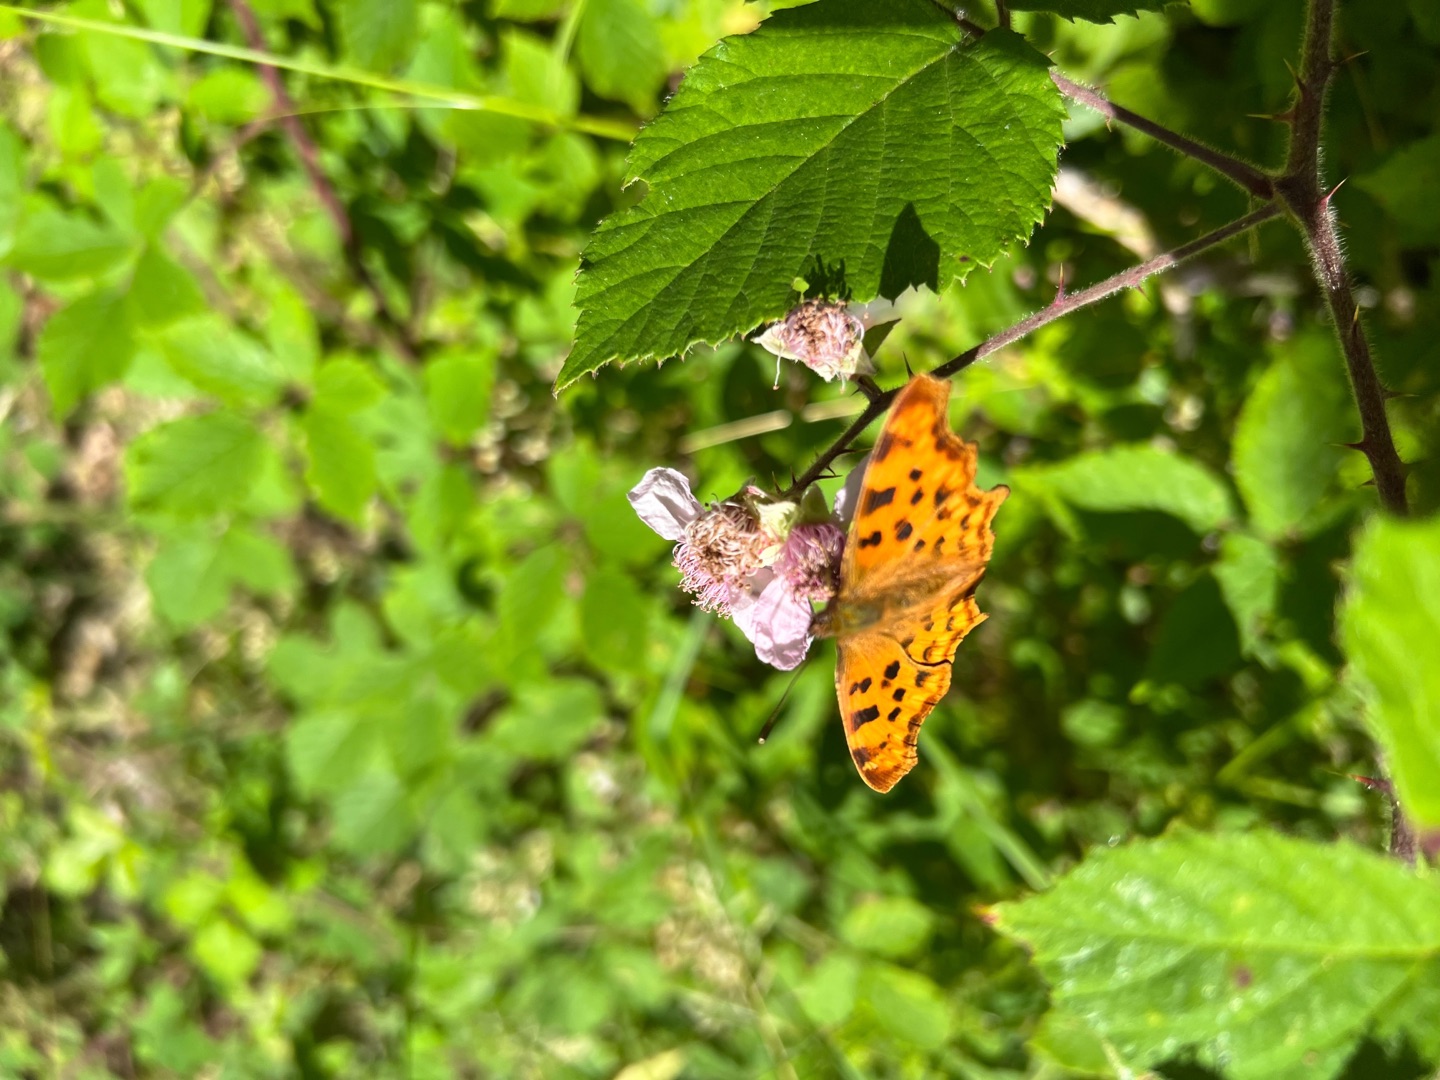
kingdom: Animalia
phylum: Arthropoda
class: Insecta
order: Lepidoptera
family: Nymphalidae
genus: Polygonia
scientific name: Polygonia c-album
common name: Det hvide C
